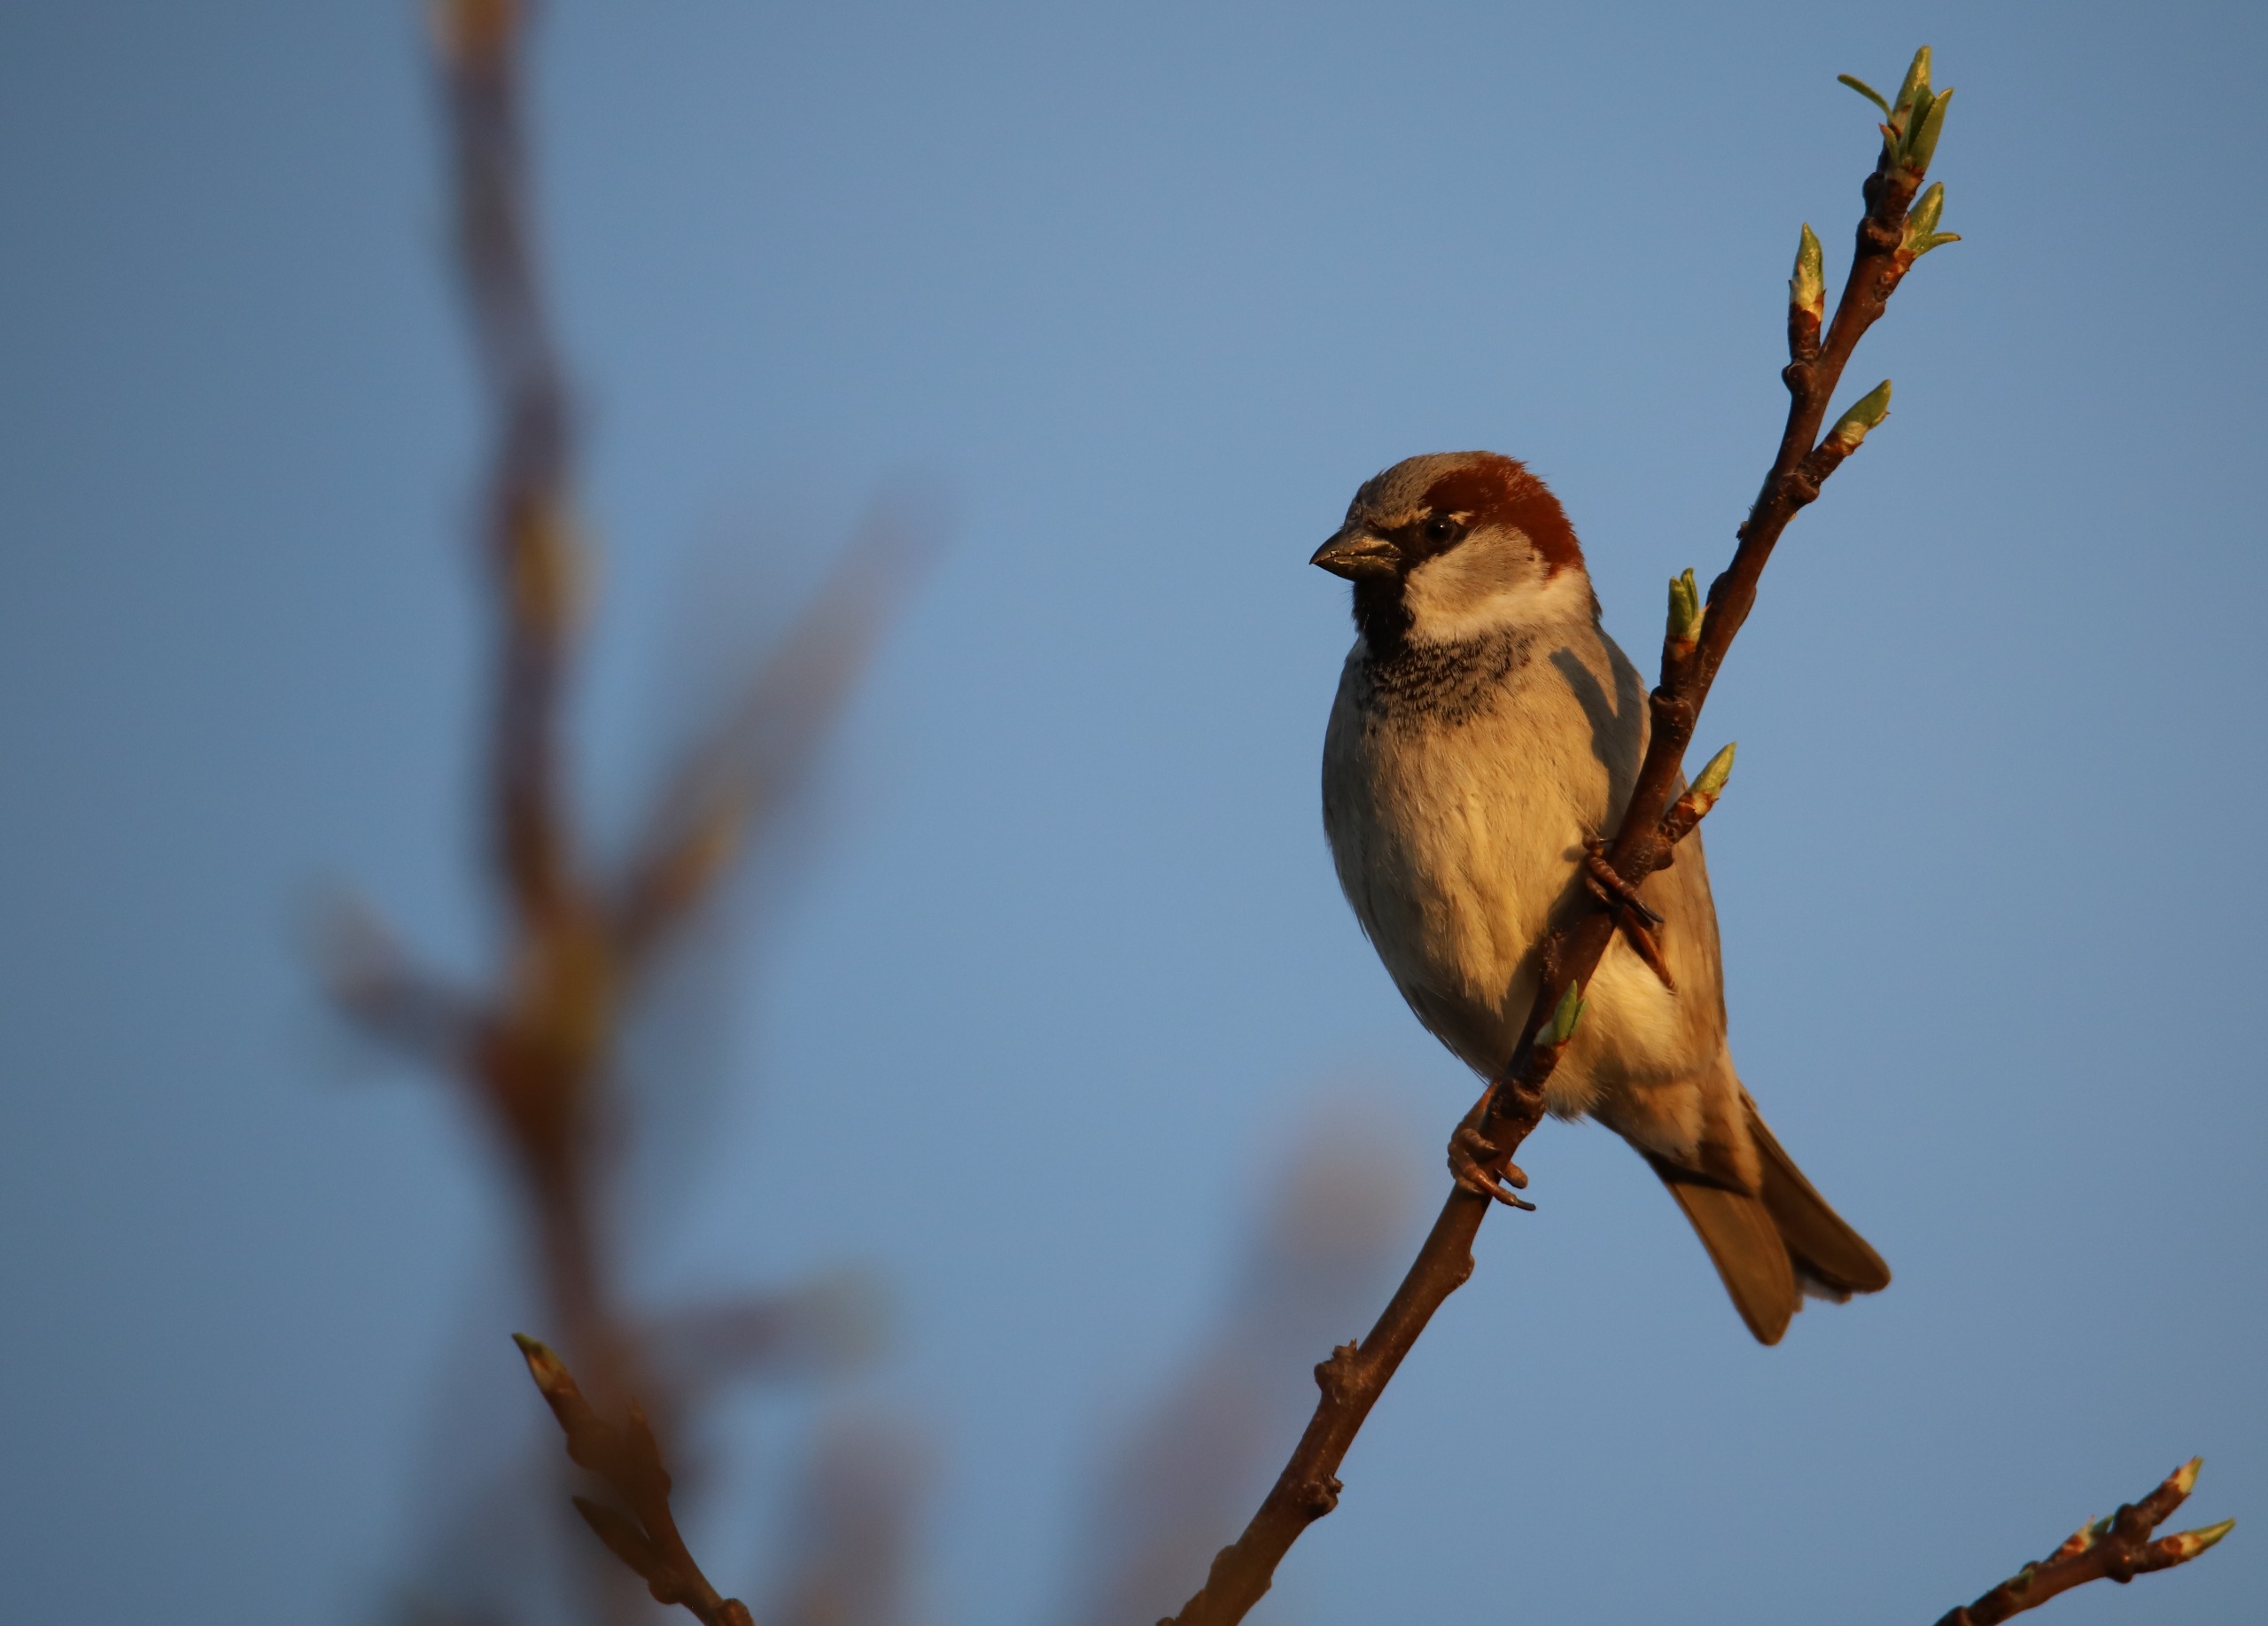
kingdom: Animalia
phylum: Chordata
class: Aves
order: Passeriformes
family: Passeridae
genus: Passer
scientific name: Passer domesticus
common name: Gråspurv
